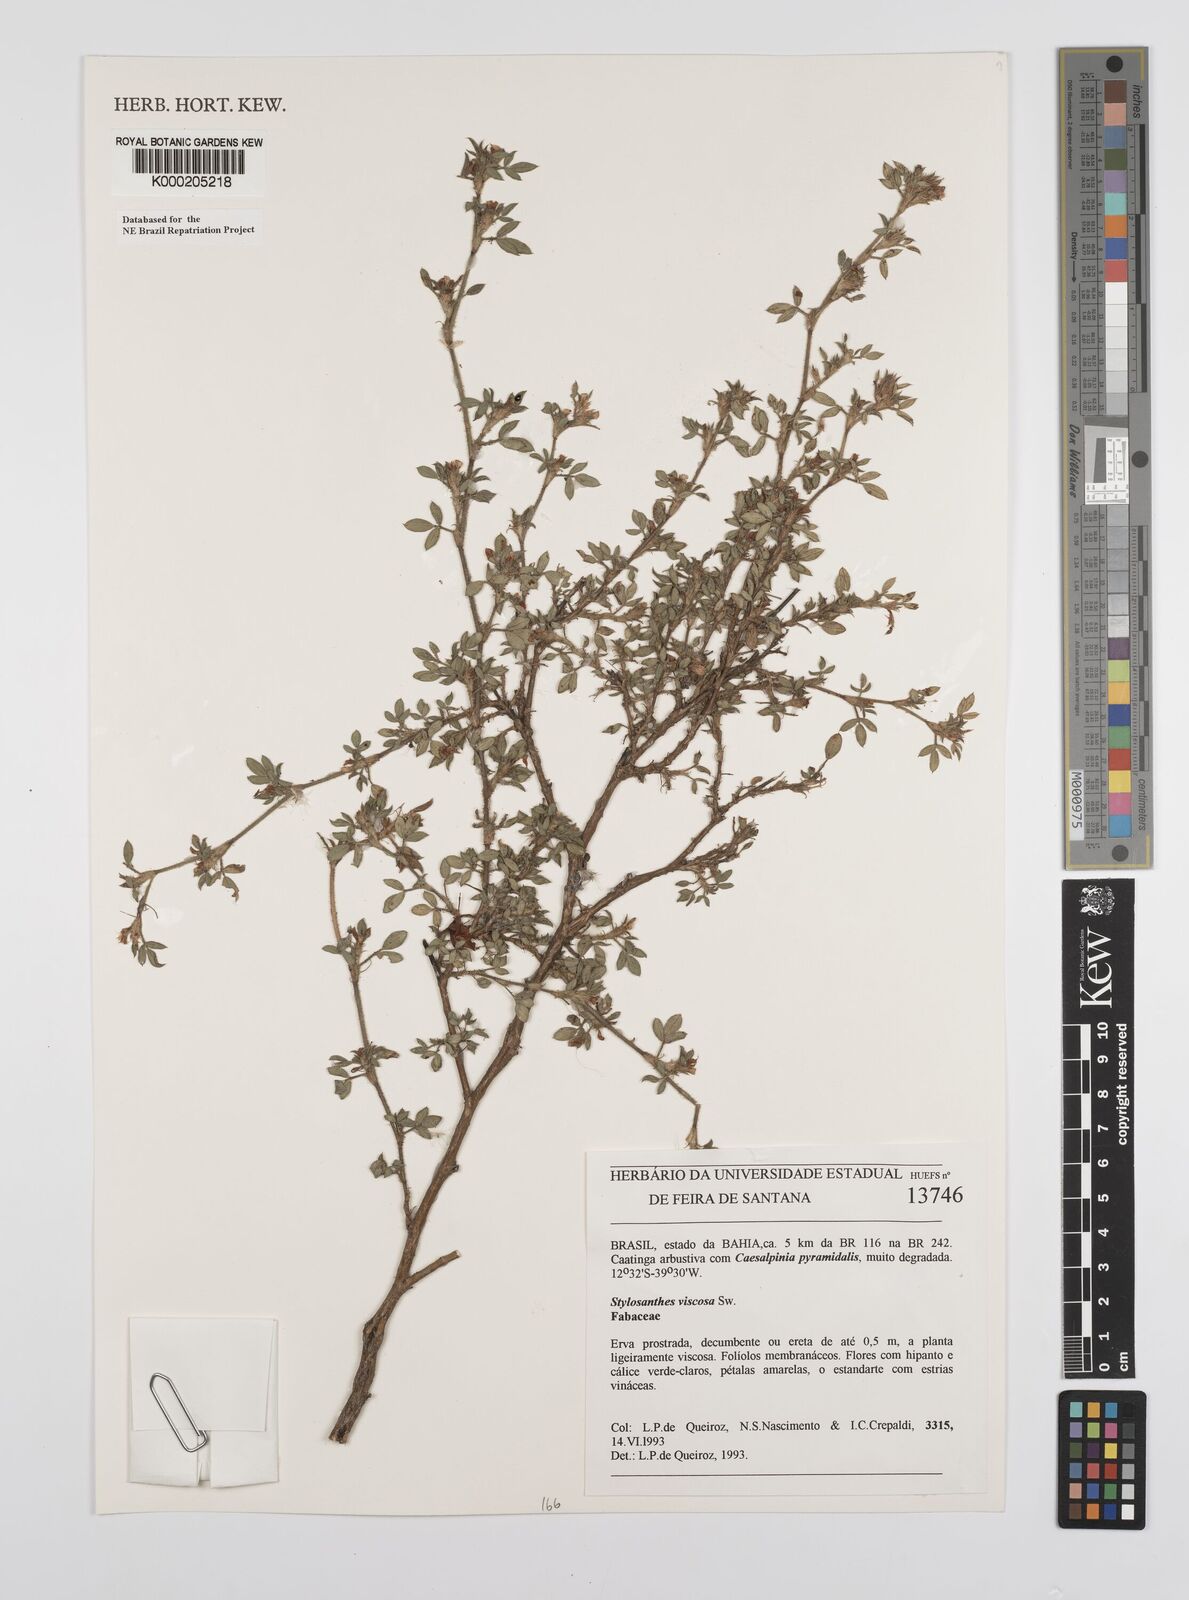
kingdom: Plantae
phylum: Tracheophyta
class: Magnoliopsida
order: Fabales
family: Fabaceae
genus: Stylosanthes
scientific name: Stylosanthes viscosa
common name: Viscid pencil-flower
